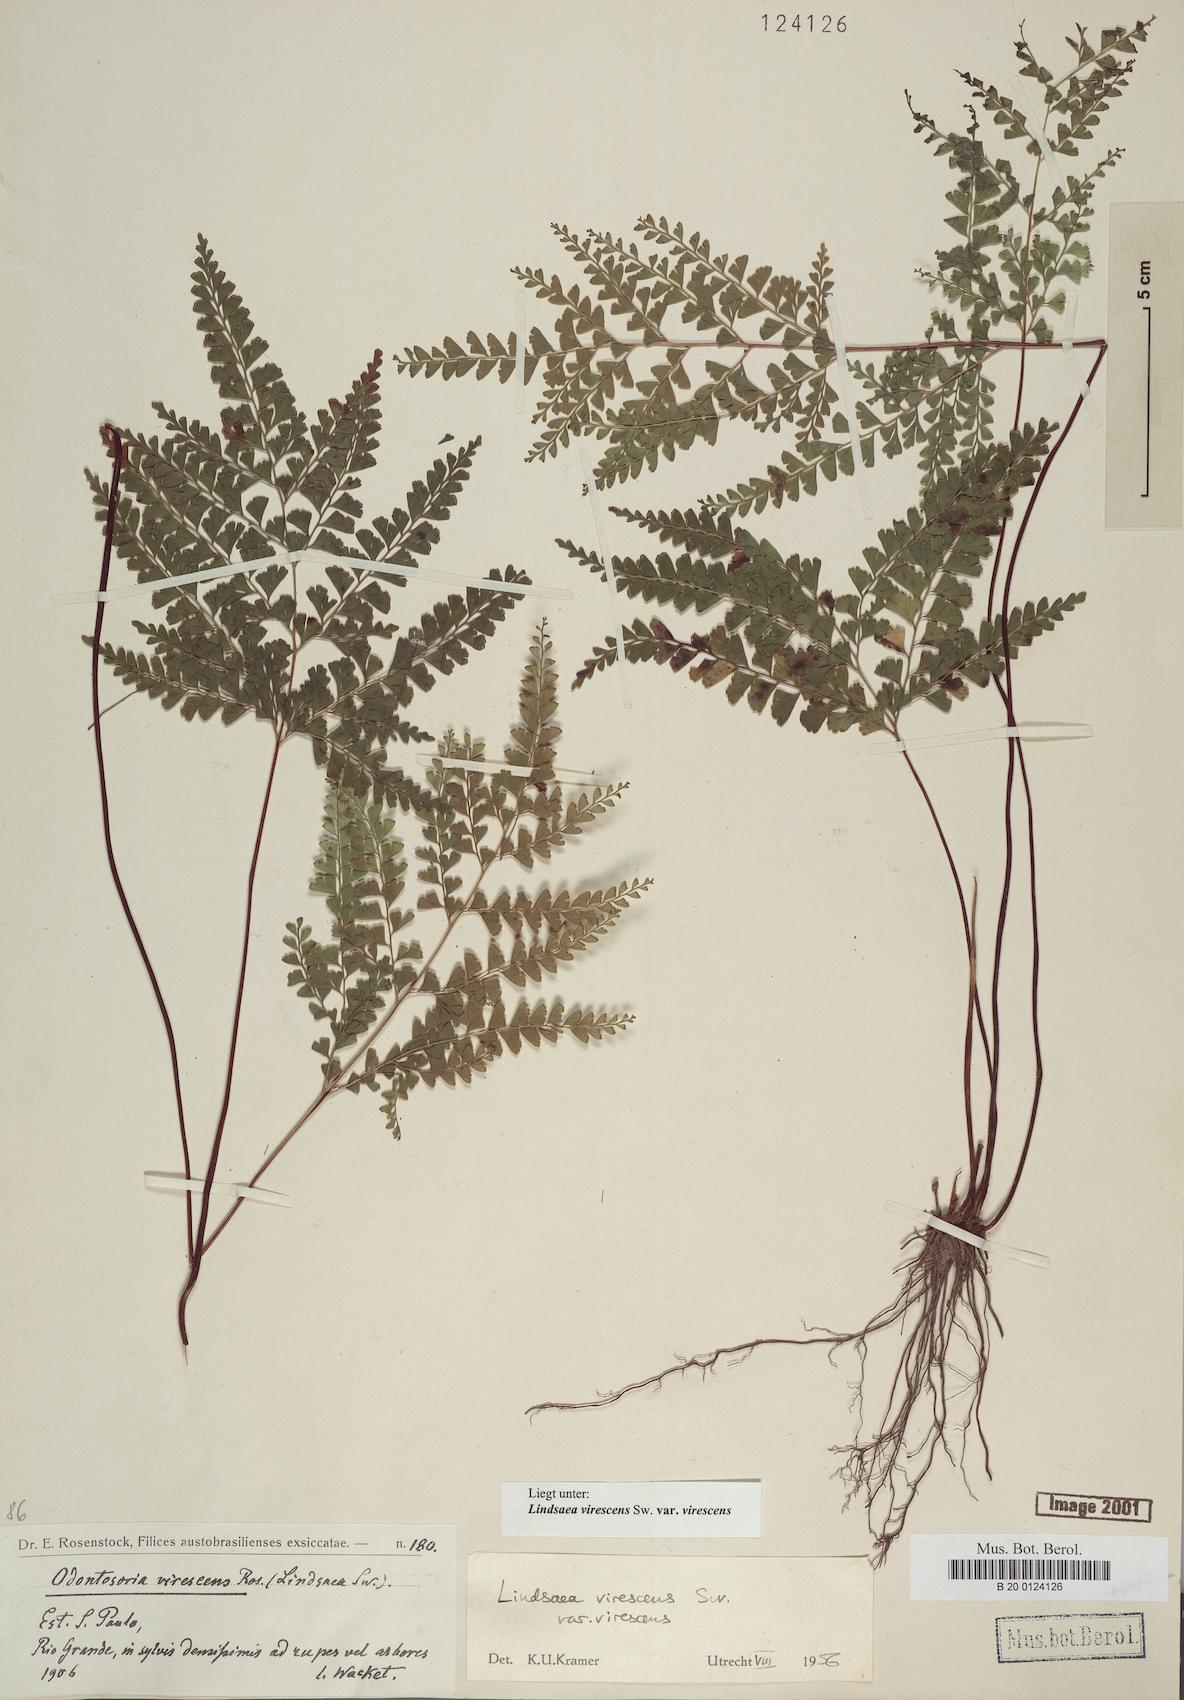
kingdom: Plantae
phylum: Tracheophyta
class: Polypodiopsida
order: Polypodiales
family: Lindsaeaceae
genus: Lindsaea
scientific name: Lindsaea virescens
